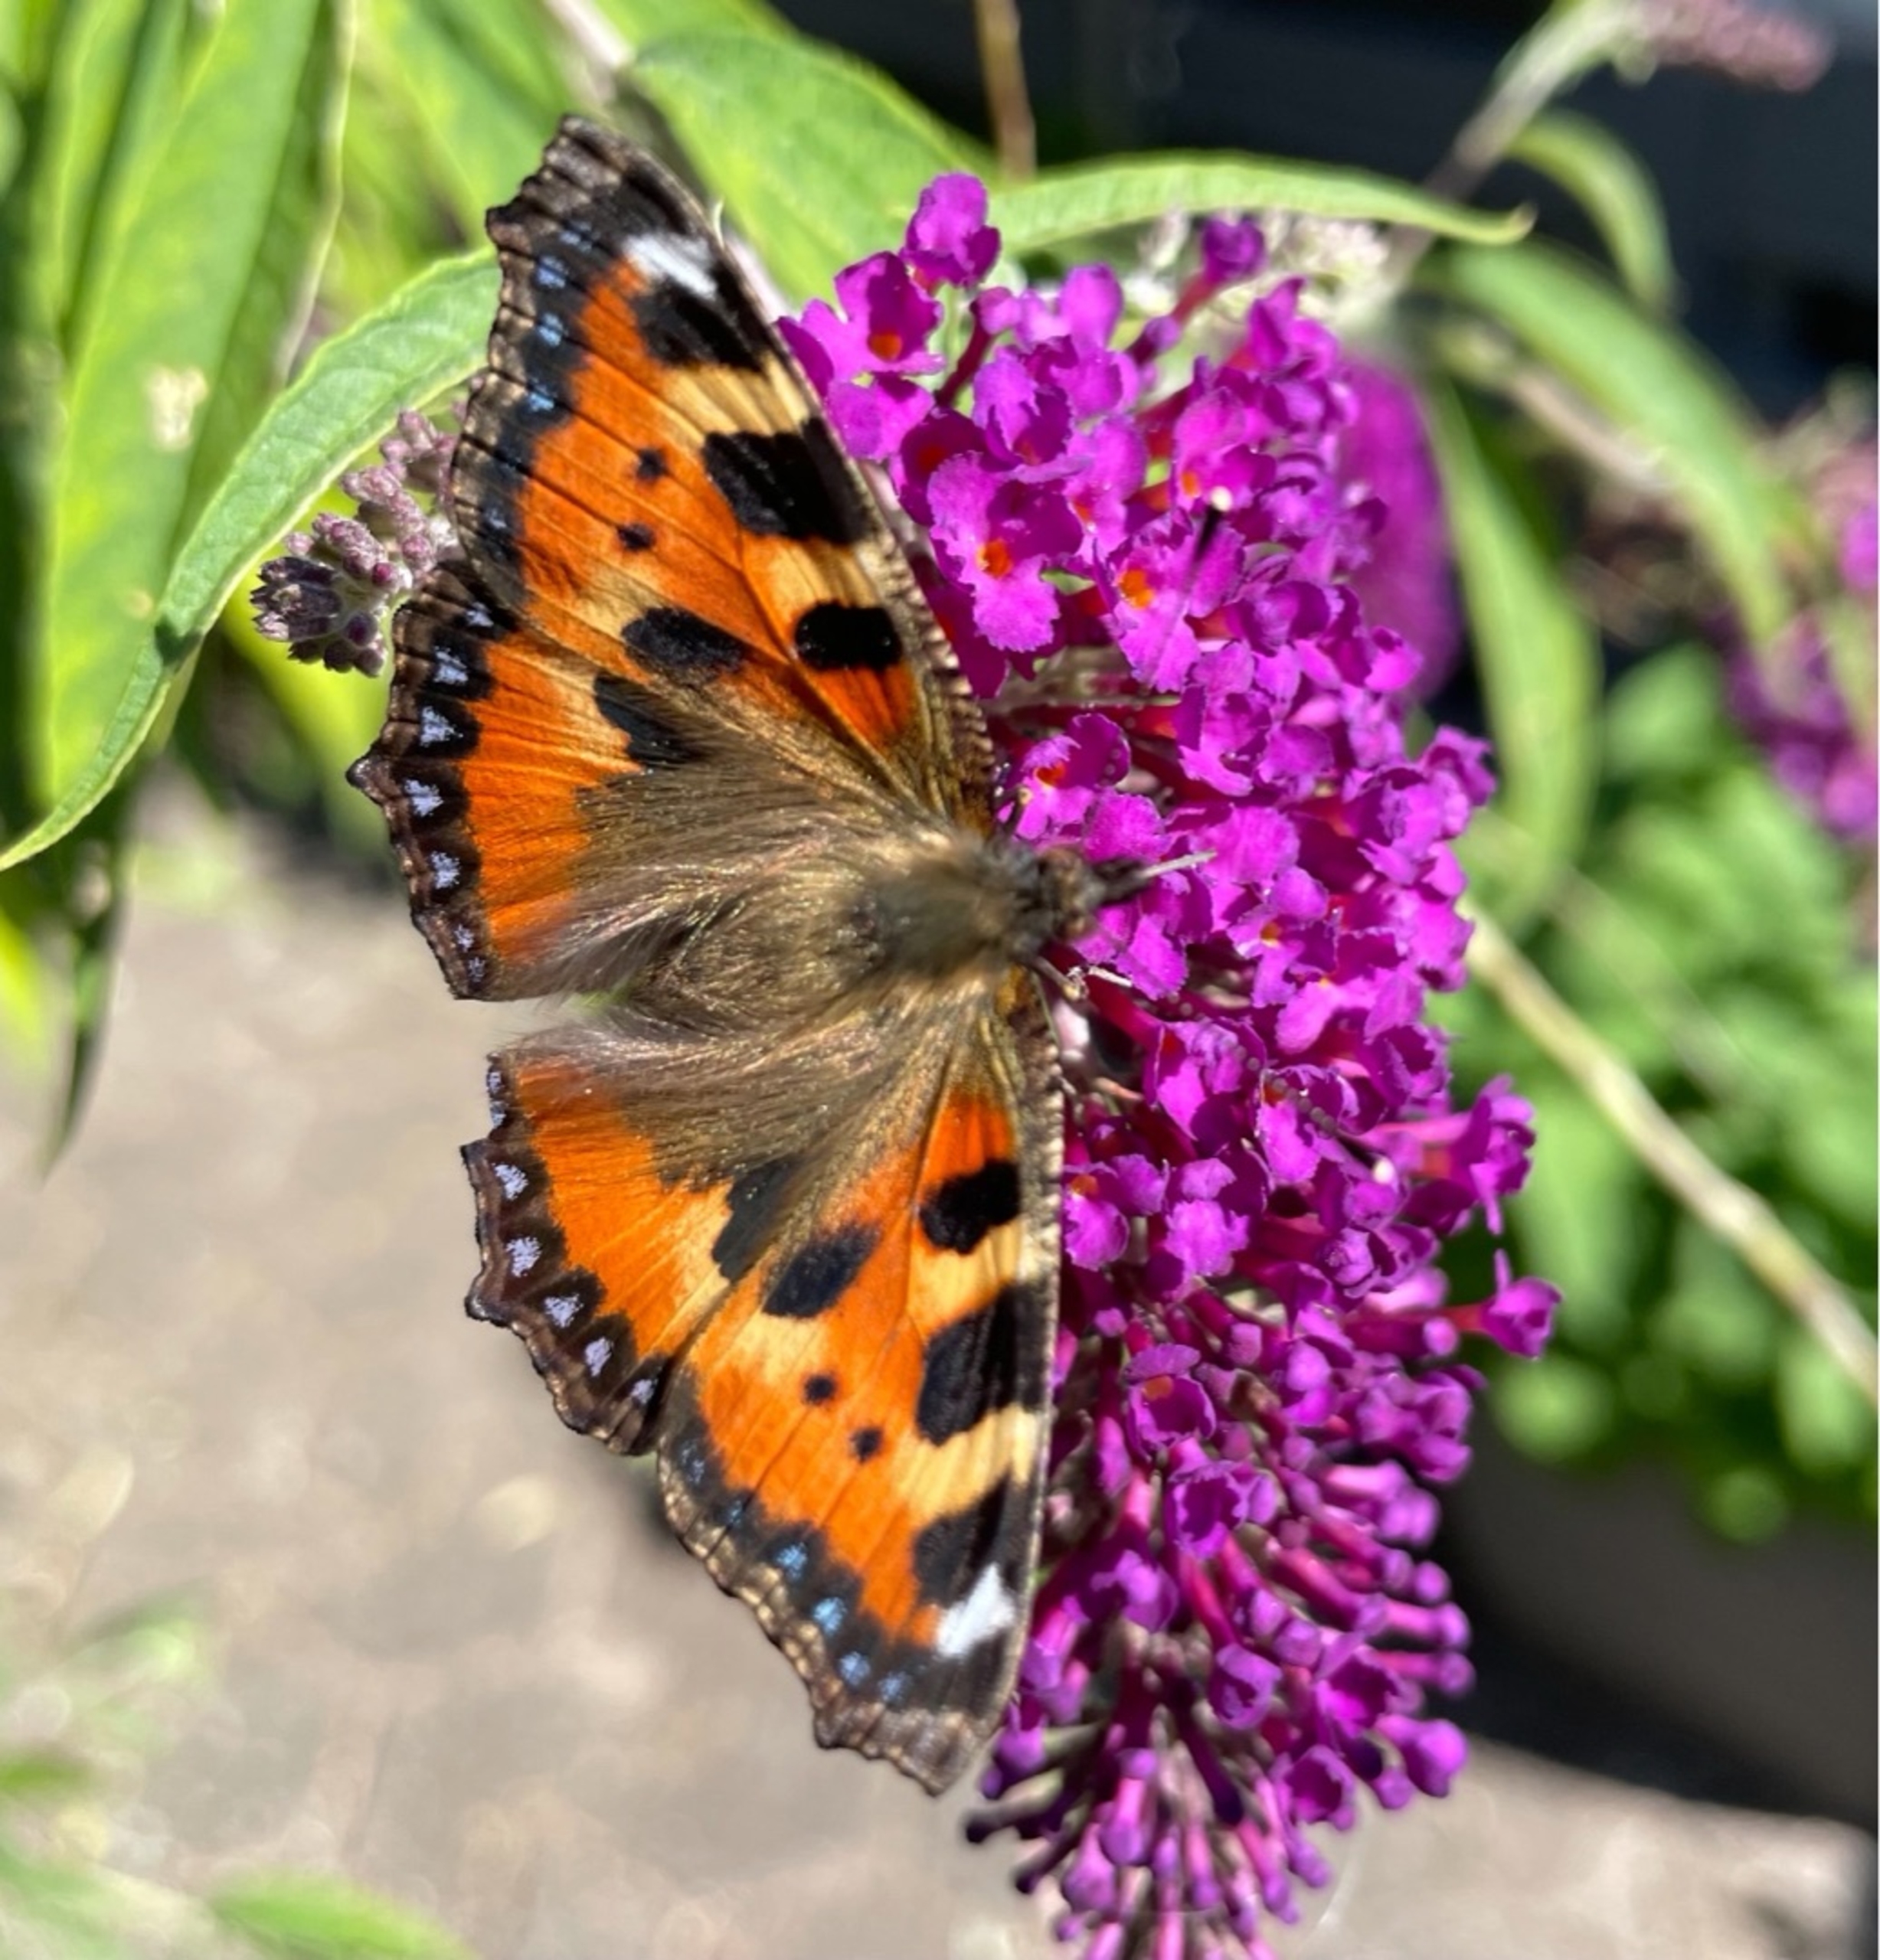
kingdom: Animalia
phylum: Arthropoda
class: Insecta
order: Lepidoptera
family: Nymphalidae
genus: Aglais
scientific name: Aglais urticae
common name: Nældens takvinge
